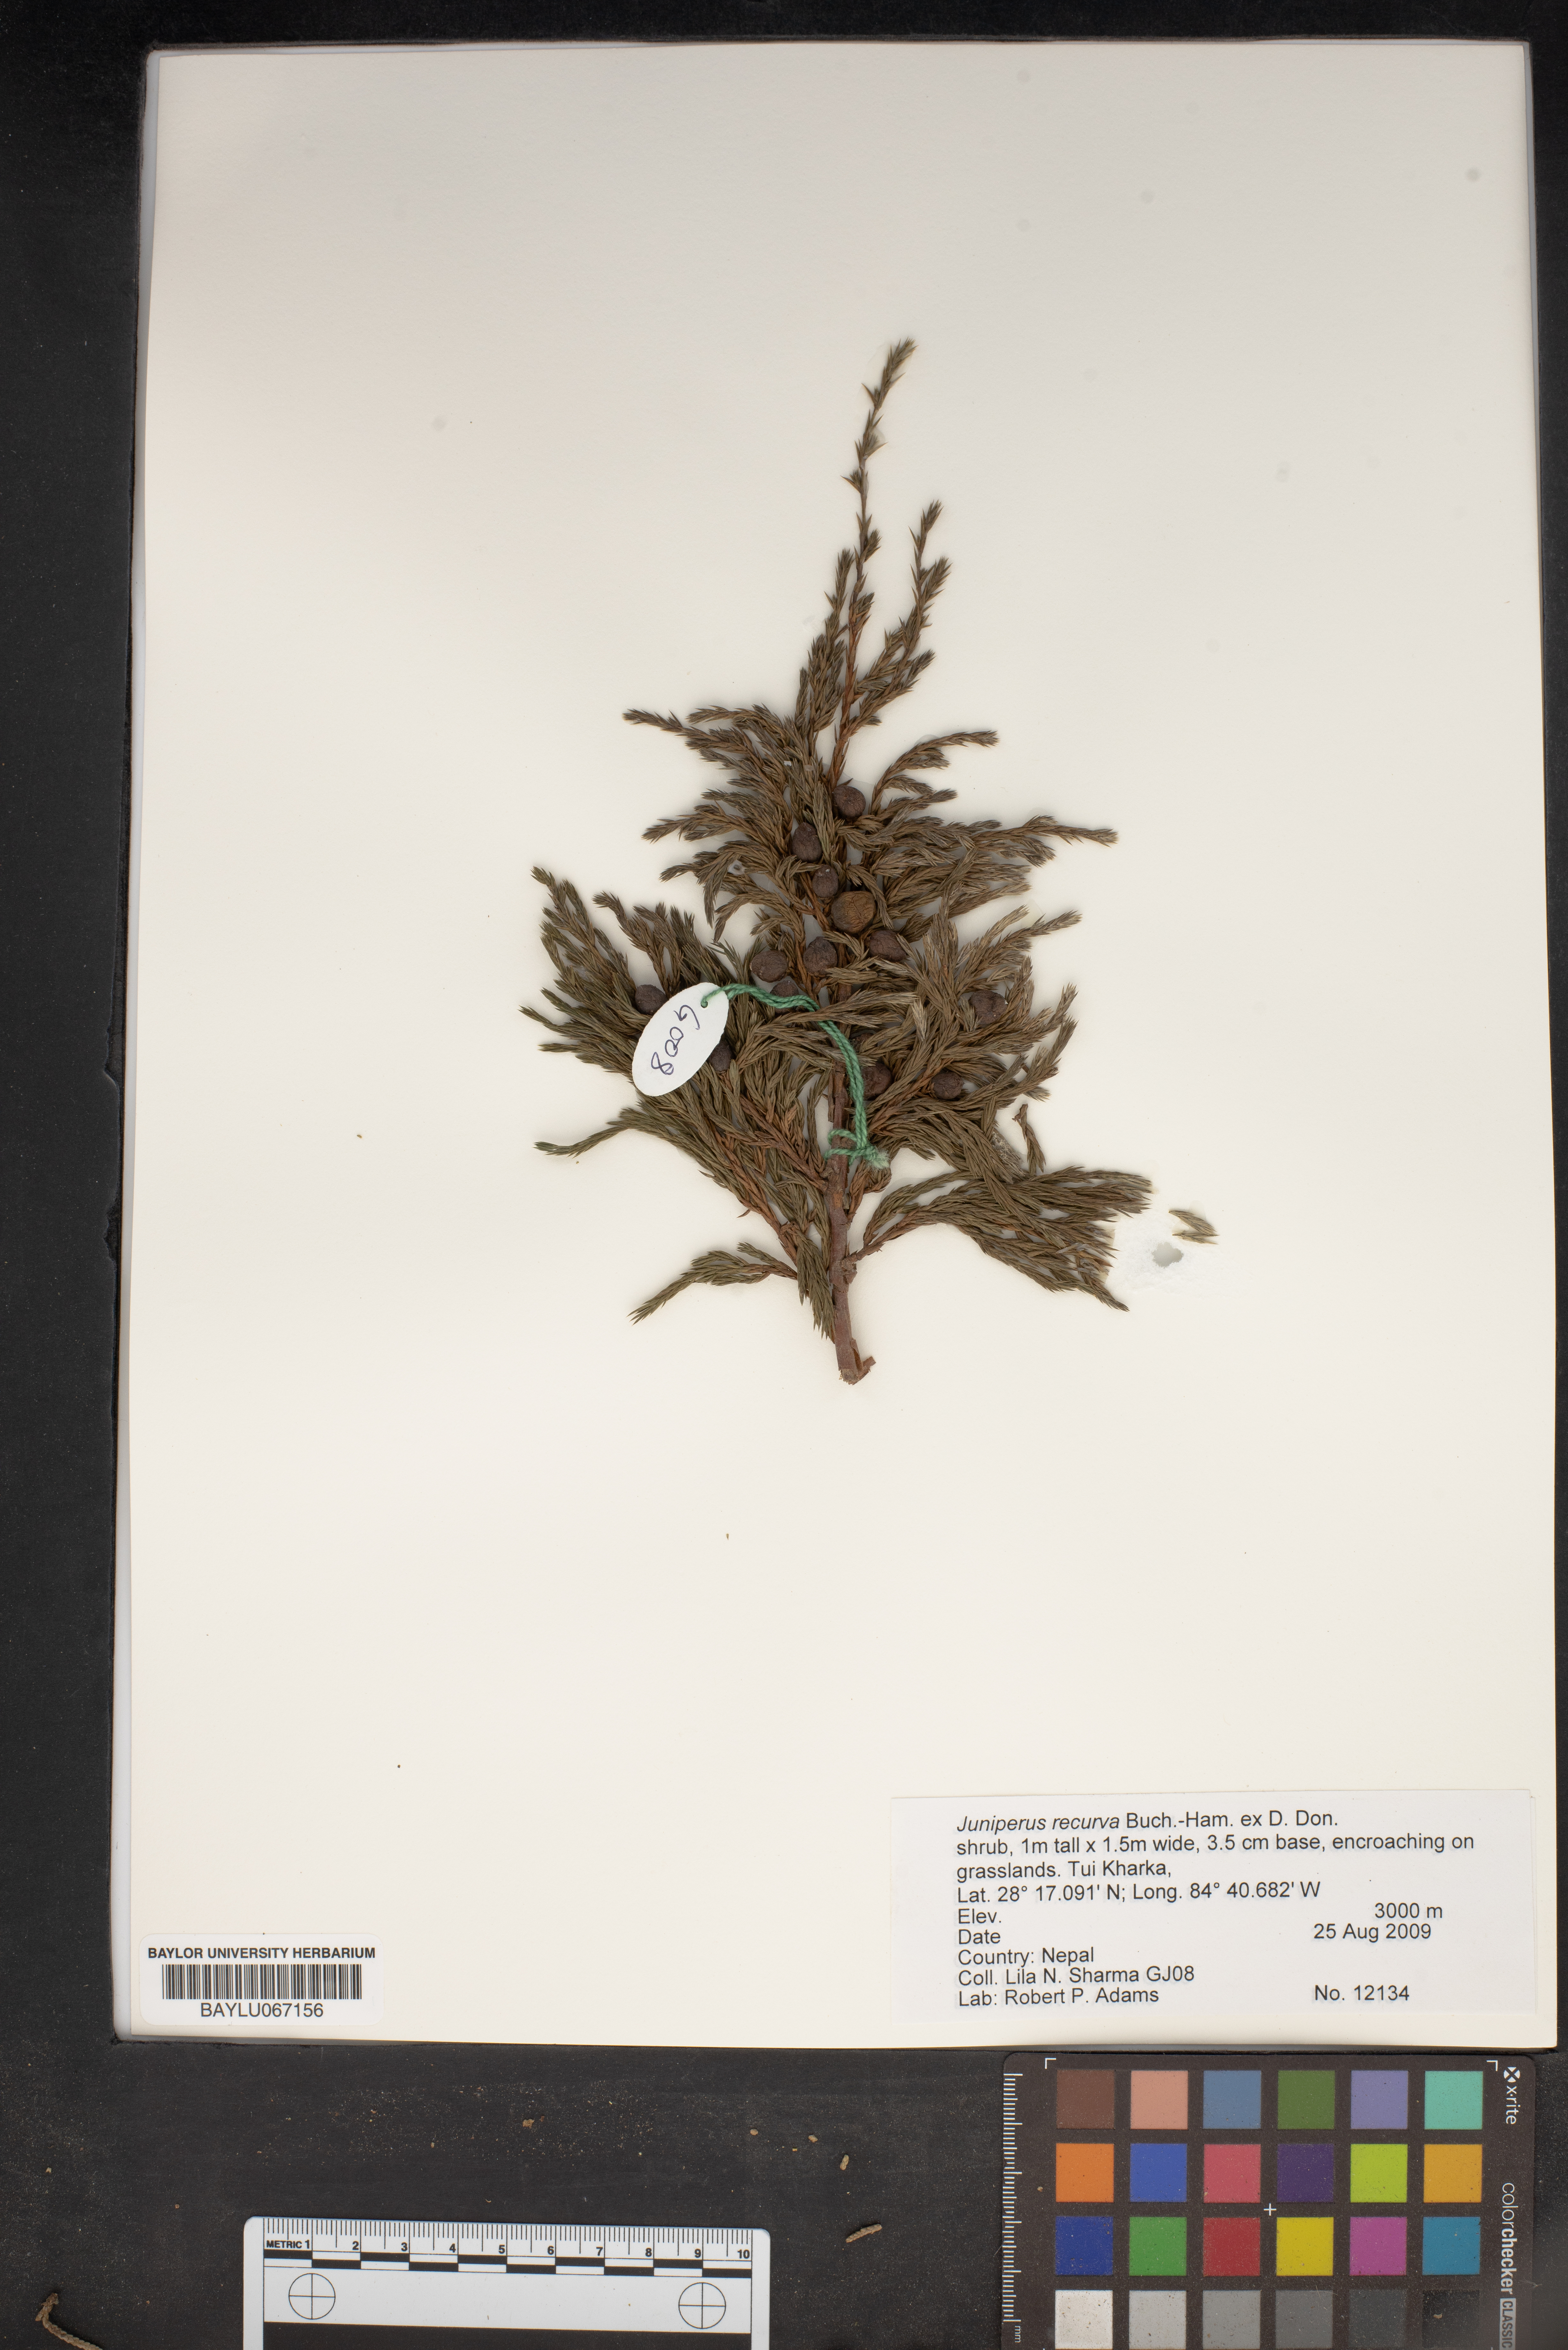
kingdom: Plantae
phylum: Tracheophyta
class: Pinopsida
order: Pinales
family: Cupressaceae
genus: Juniperus
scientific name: Juniperus recurva
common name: Drooping juniper
